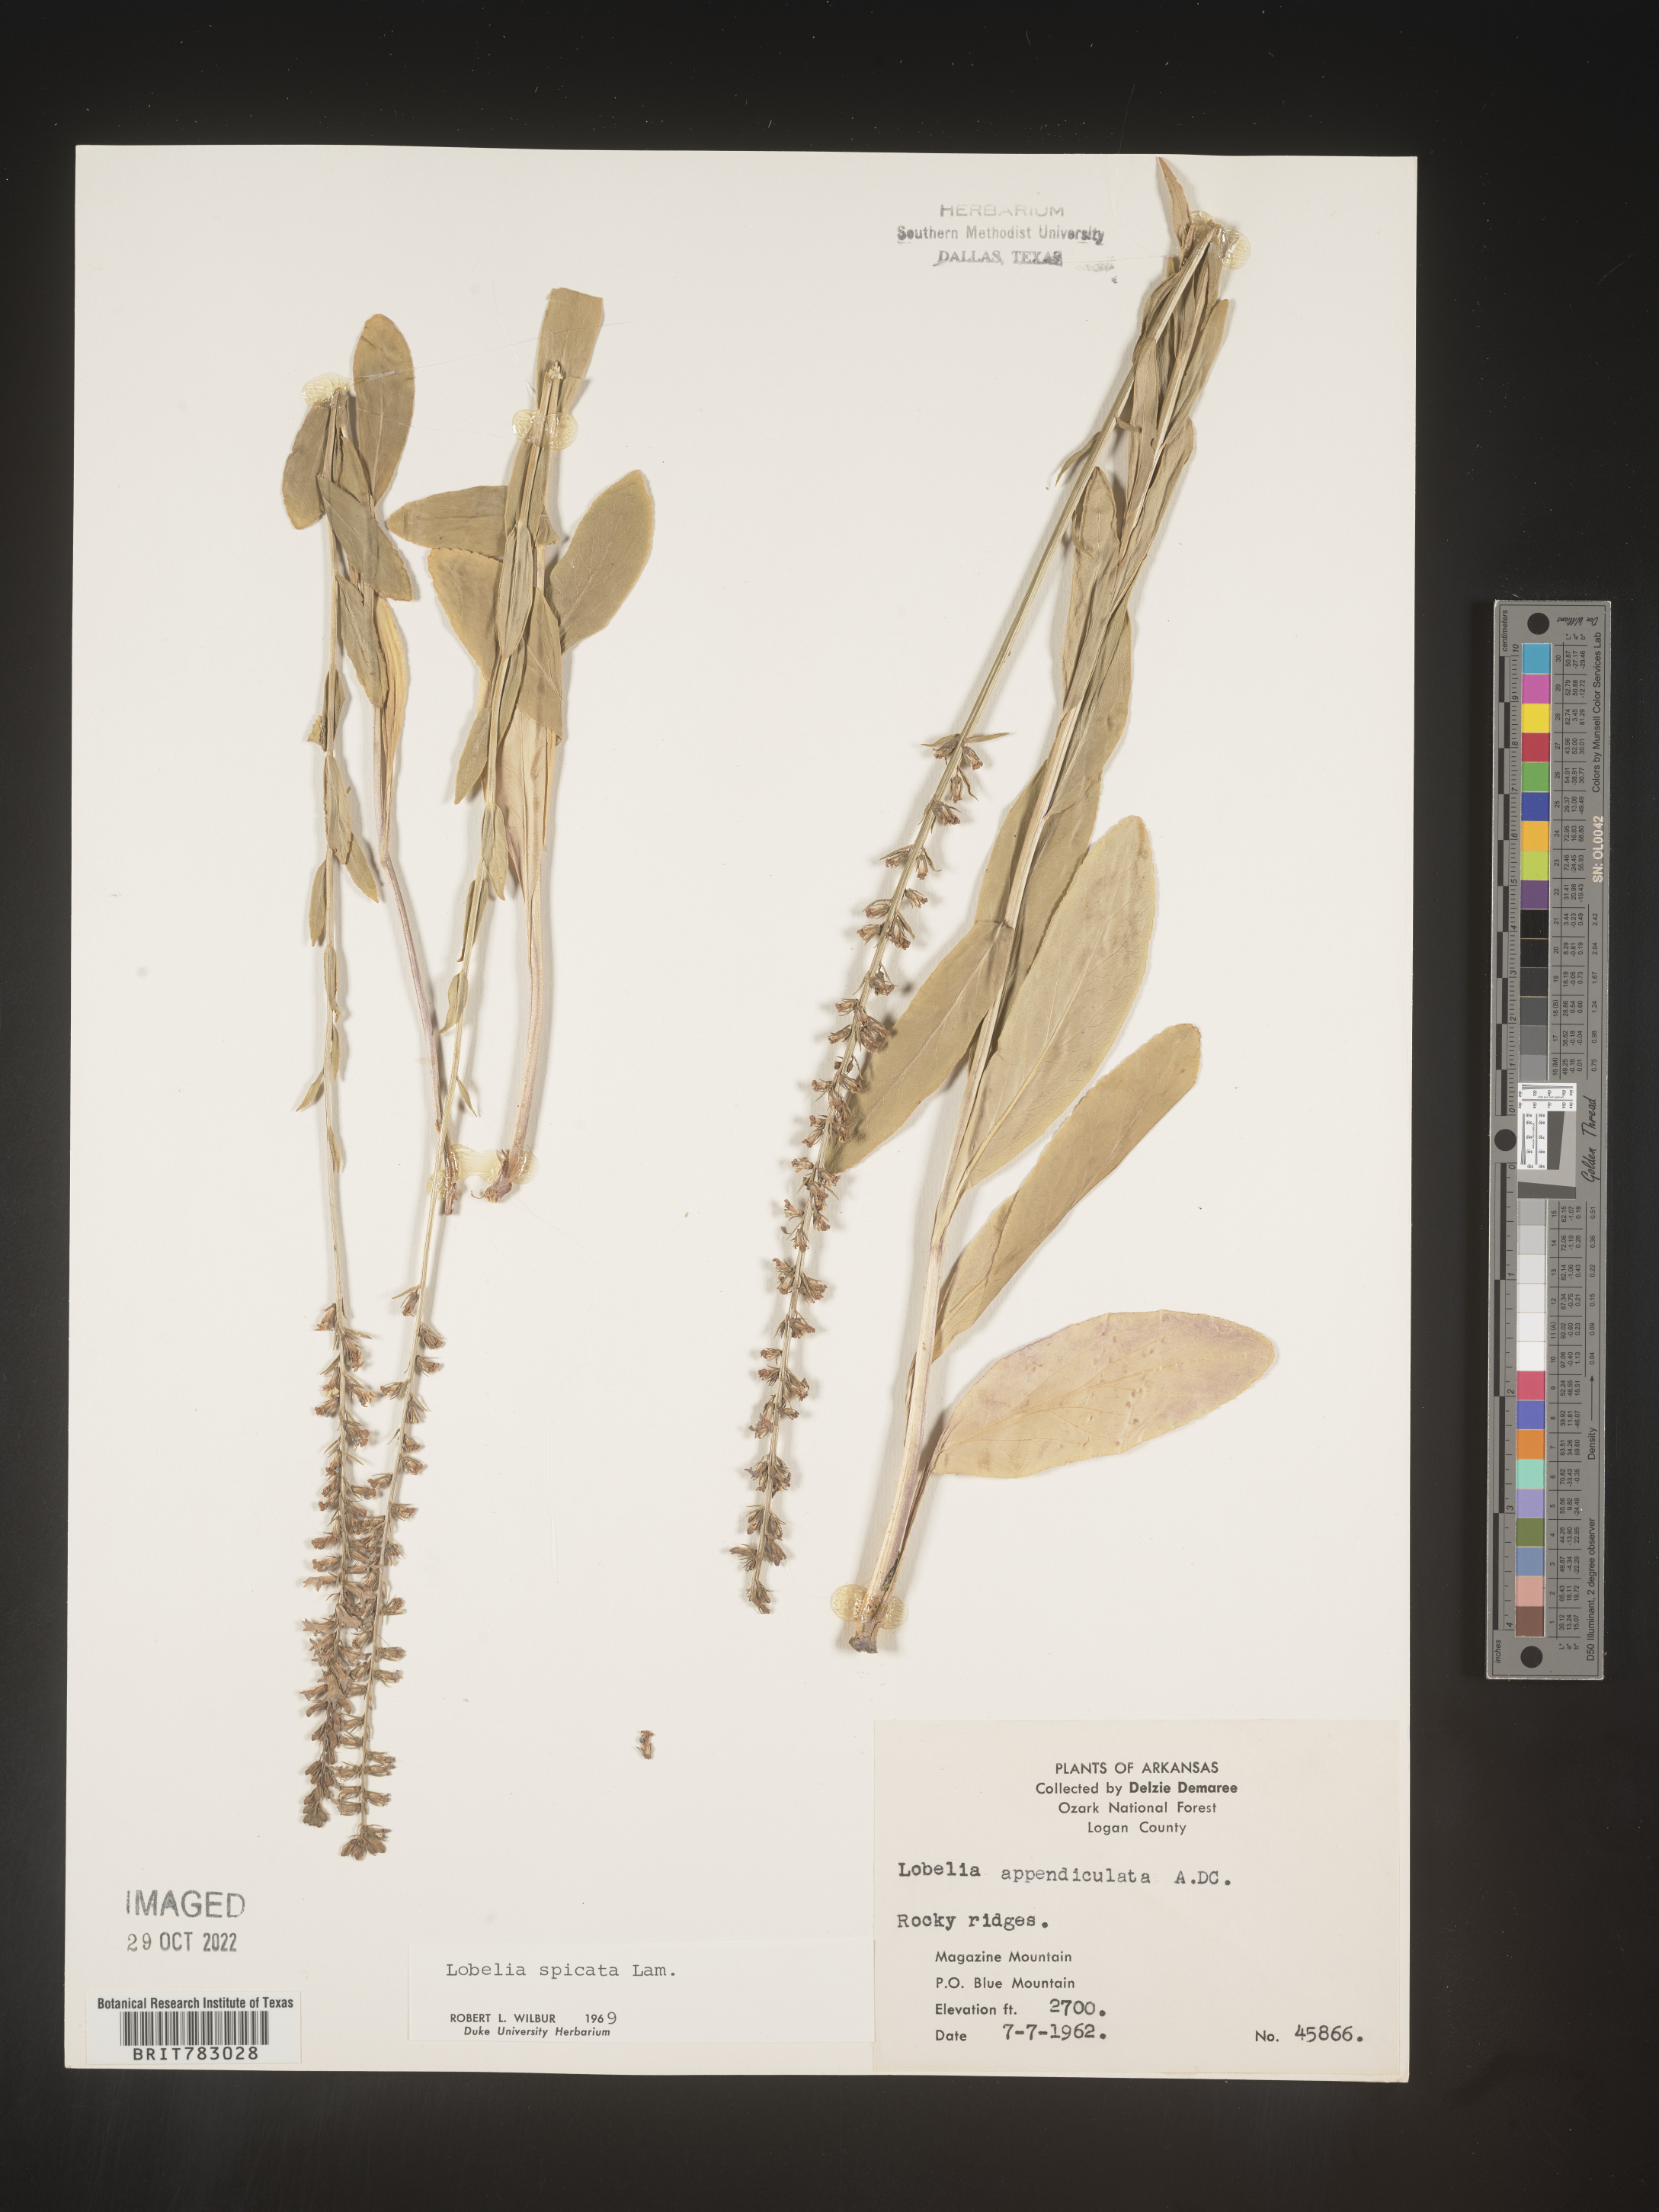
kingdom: Plantae
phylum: Tracheophyta
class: Magnoliopsida
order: Asterales
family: Campanulaceae
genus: Lobelia
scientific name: Lobelia spicata
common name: Pale-spike lobelia
